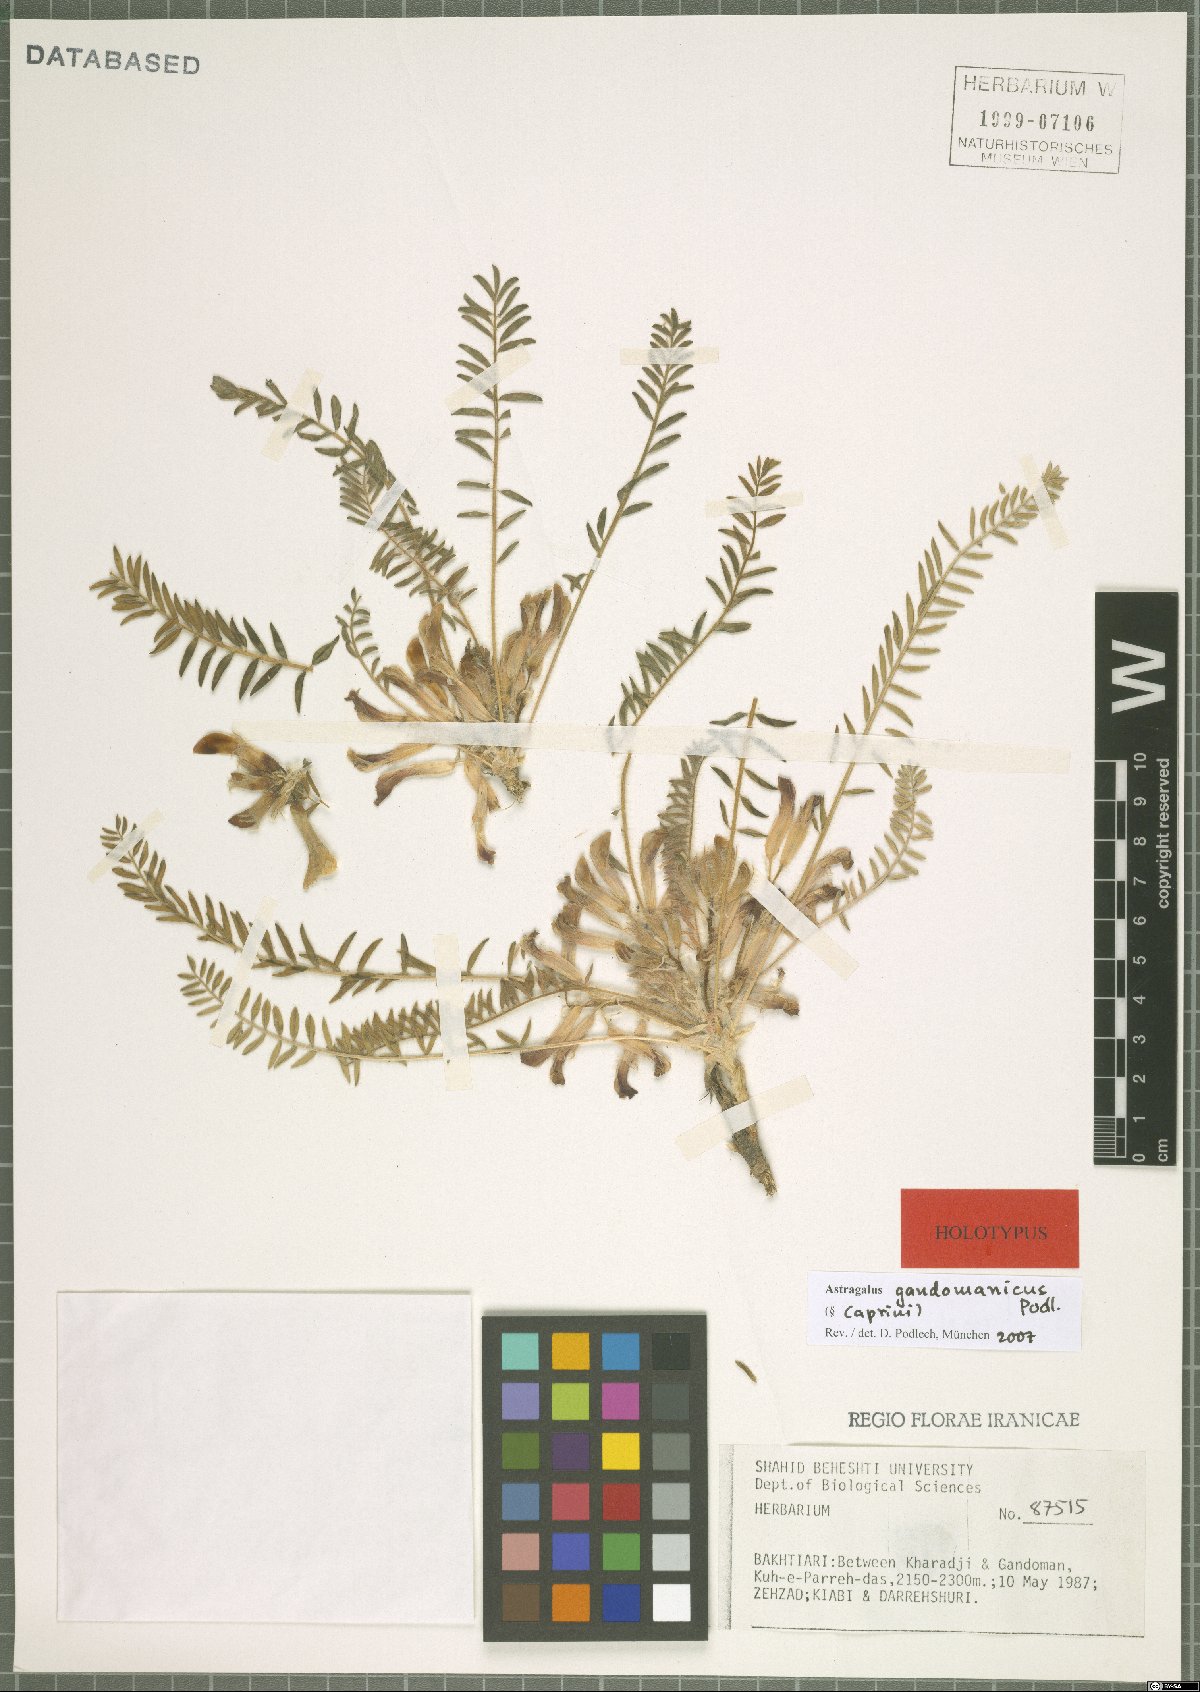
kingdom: Plantae
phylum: Tracheophyta
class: Magnoliopsida
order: Fabales
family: Fabaceae
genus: Astragalus
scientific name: Astragalus gandomanicus
